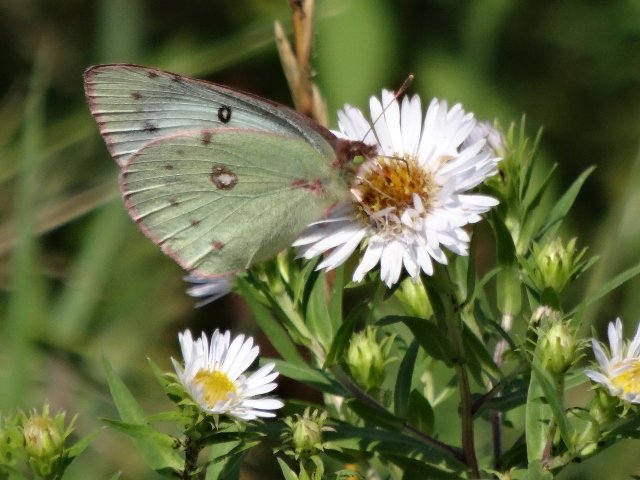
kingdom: Animalia
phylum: Arthropoda
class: Insecta
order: Lepidoptera
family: Pieridae
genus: Colias
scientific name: Colias philodice
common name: Clouded Sulphur
